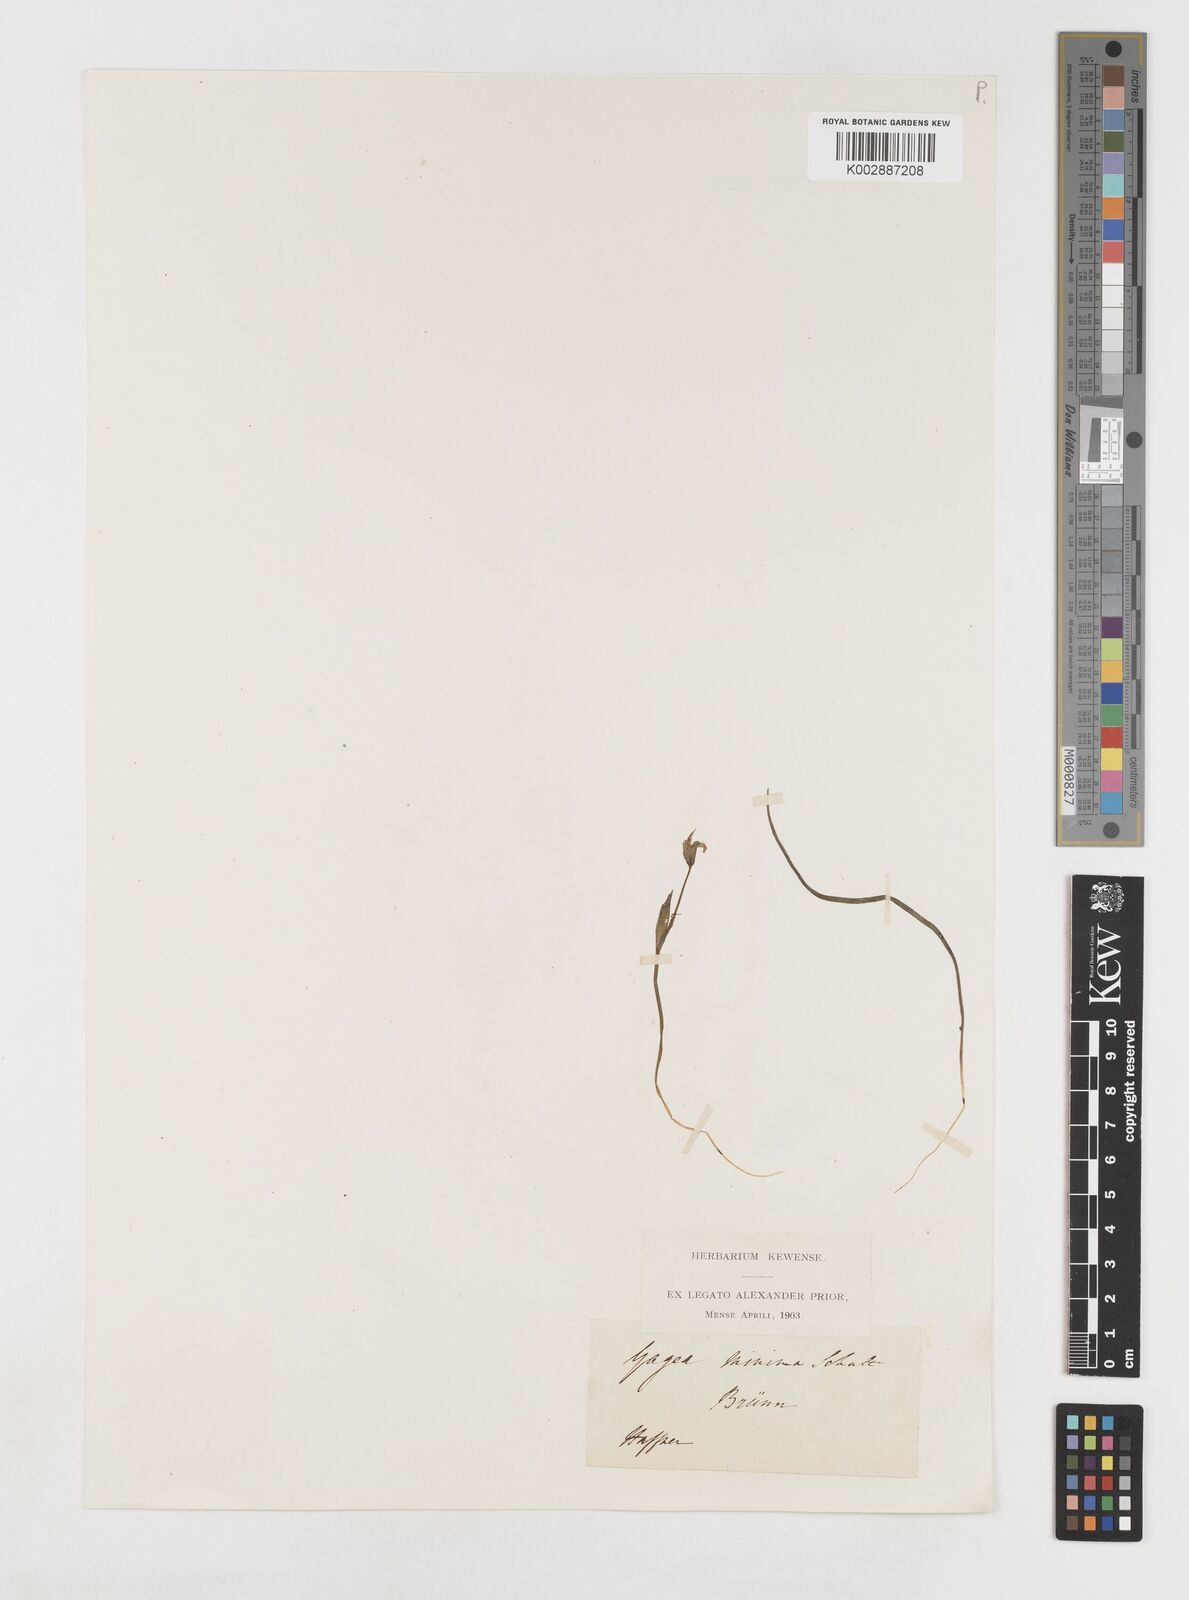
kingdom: Plantae
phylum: Tracheophyta
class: Liliopsida
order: Liliales
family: Liliaceae
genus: Gagea
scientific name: Gagea minima
